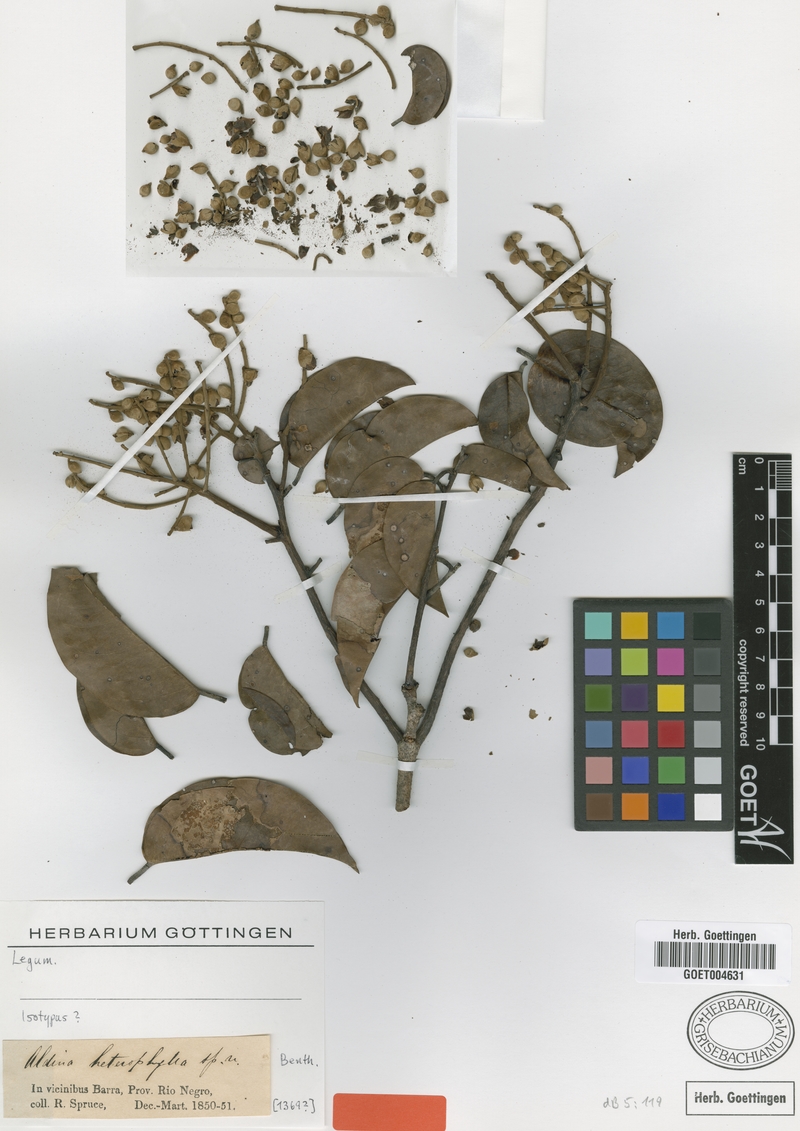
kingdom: Plantae
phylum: Tracheophyta
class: Magnoliopsida
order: Fabales
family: Fabaceae
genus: Aldina
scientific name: Aldina heterophylla
